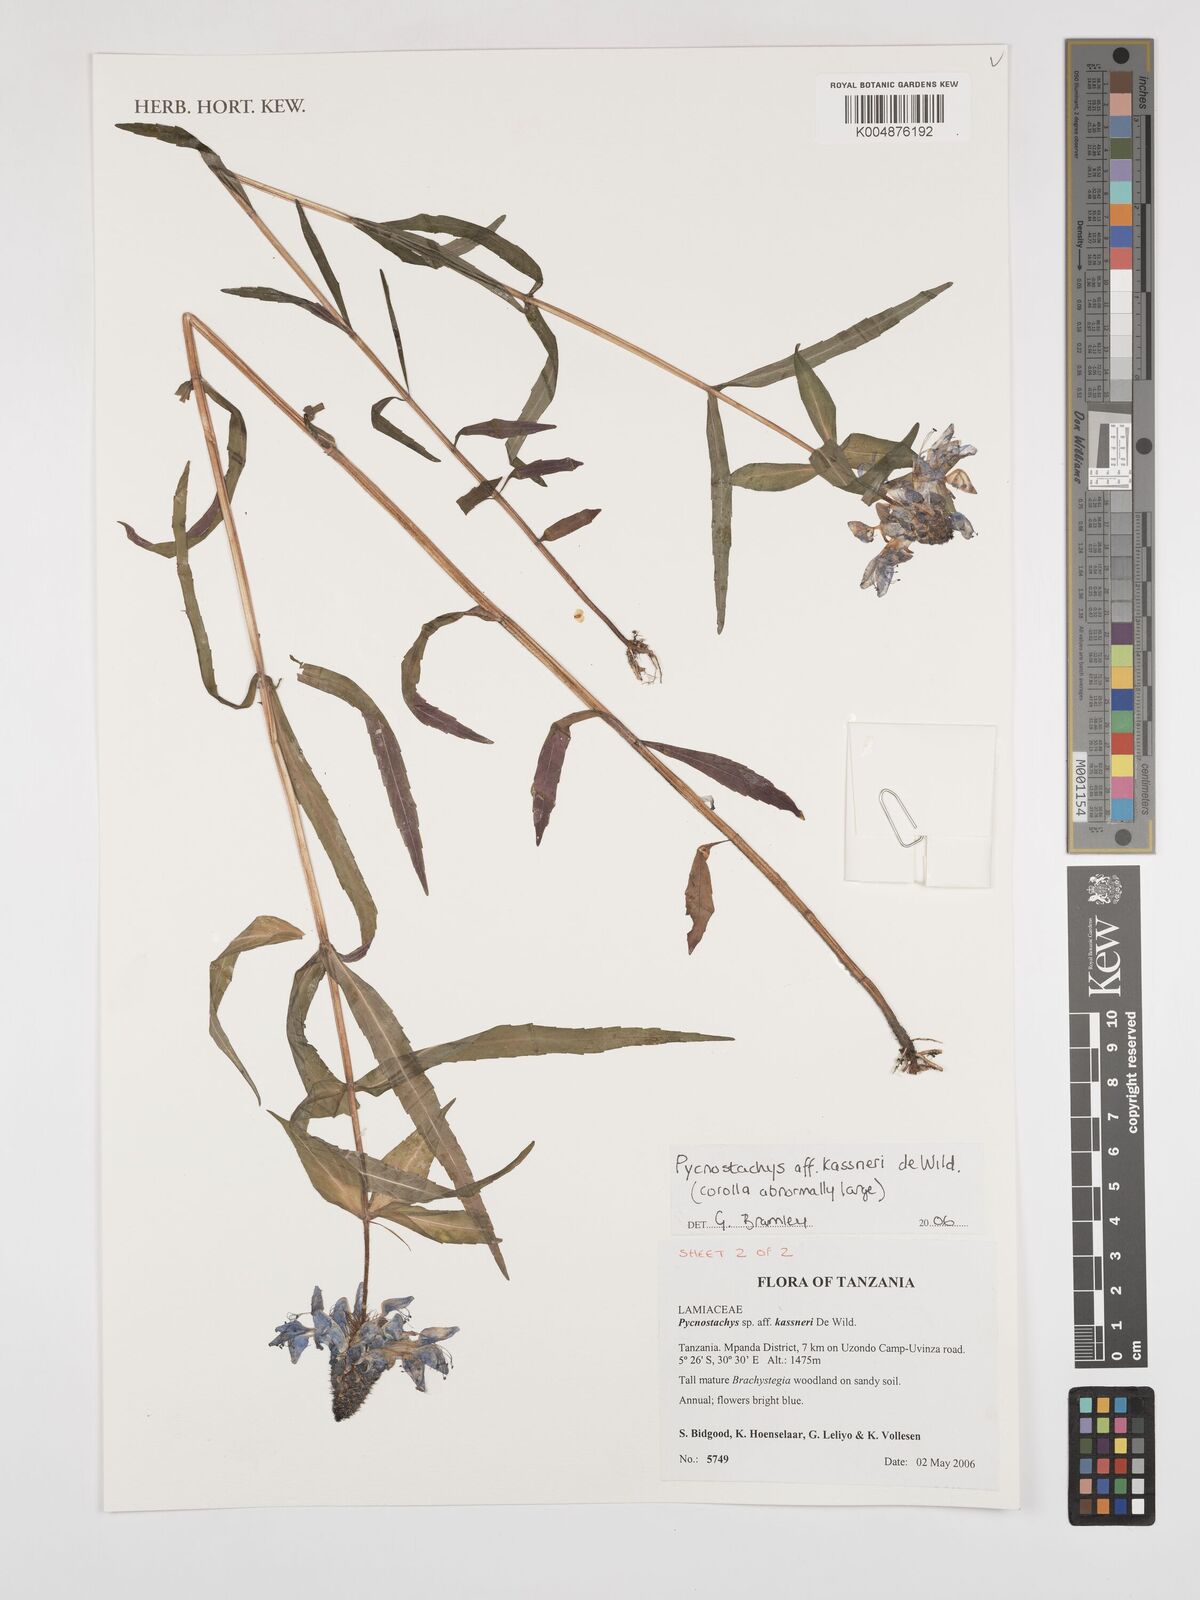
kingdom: Plantae
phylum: Tracheophyta
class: Magnoliopsida
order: Lamiales
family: Lamiaceae
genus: Coleus
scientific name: Coleus scruposus
